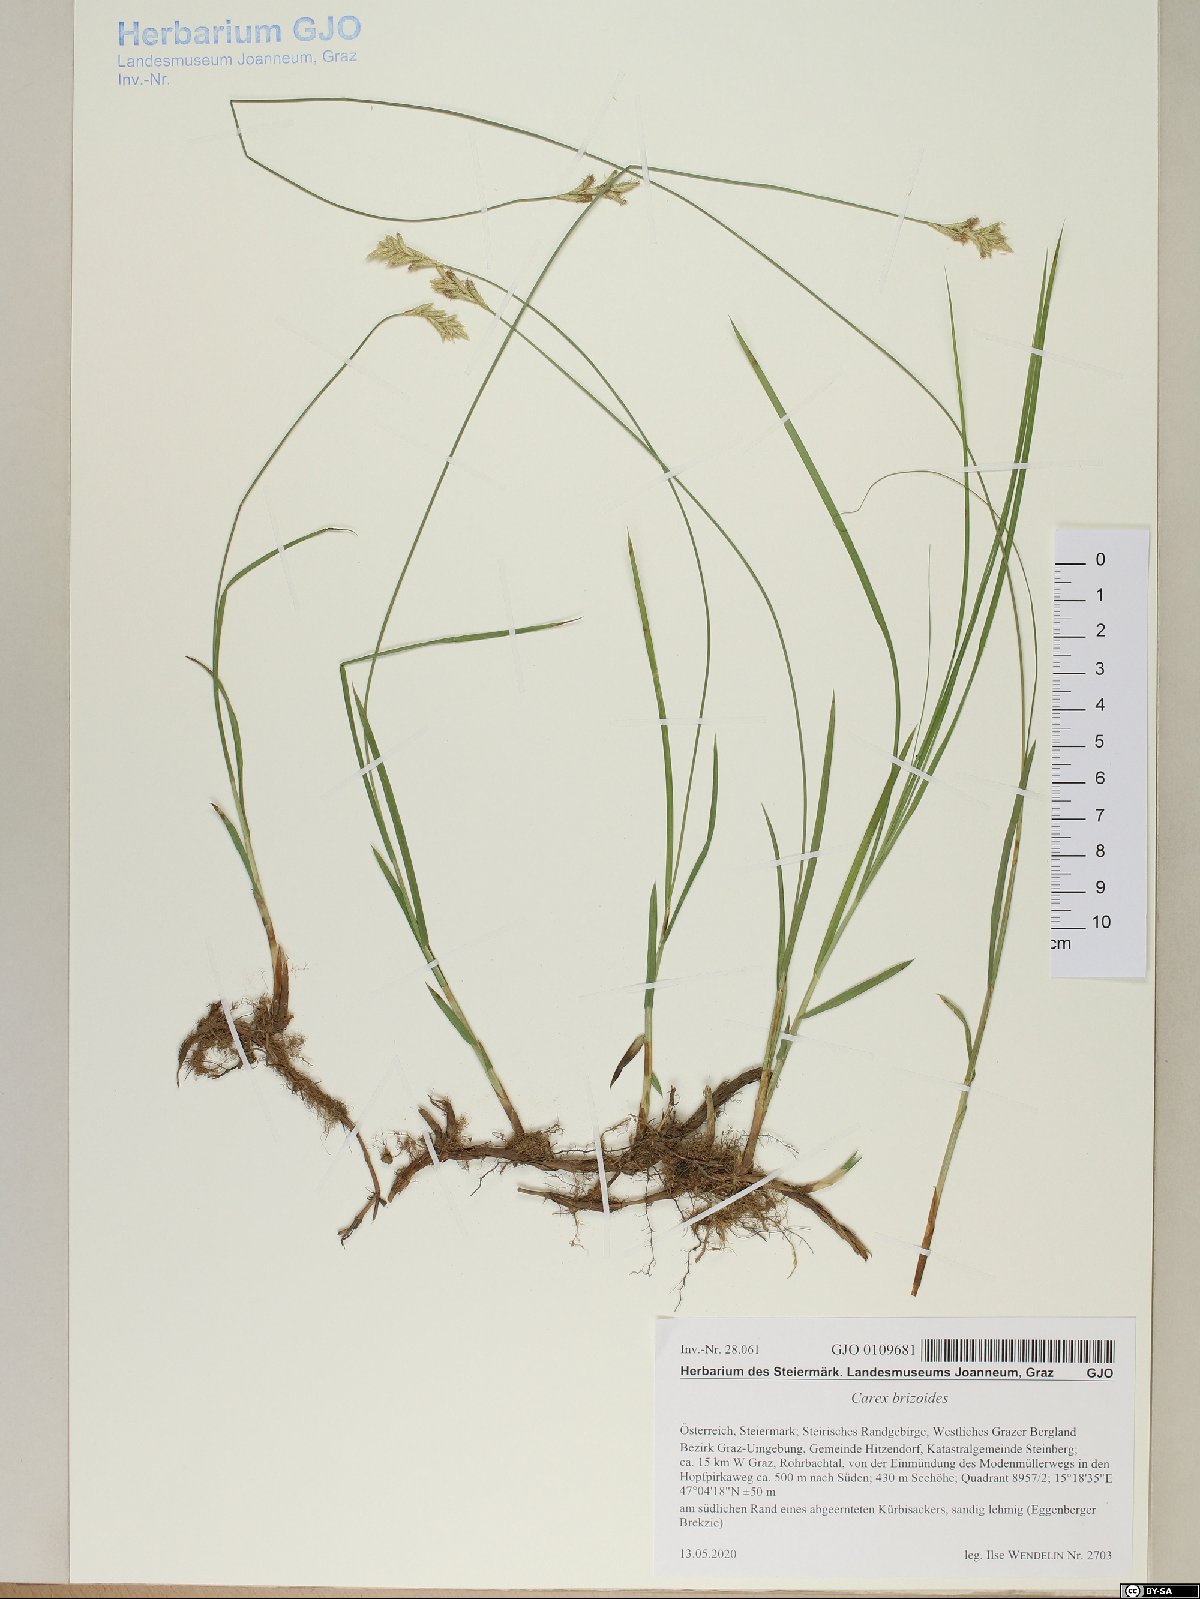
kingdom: Plantae
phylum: Tracheophyta
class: Liliopsida
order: Poales
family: Cyperaceae
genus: Carex
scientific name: Carex brizoides
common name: Quaking-grass sedge
